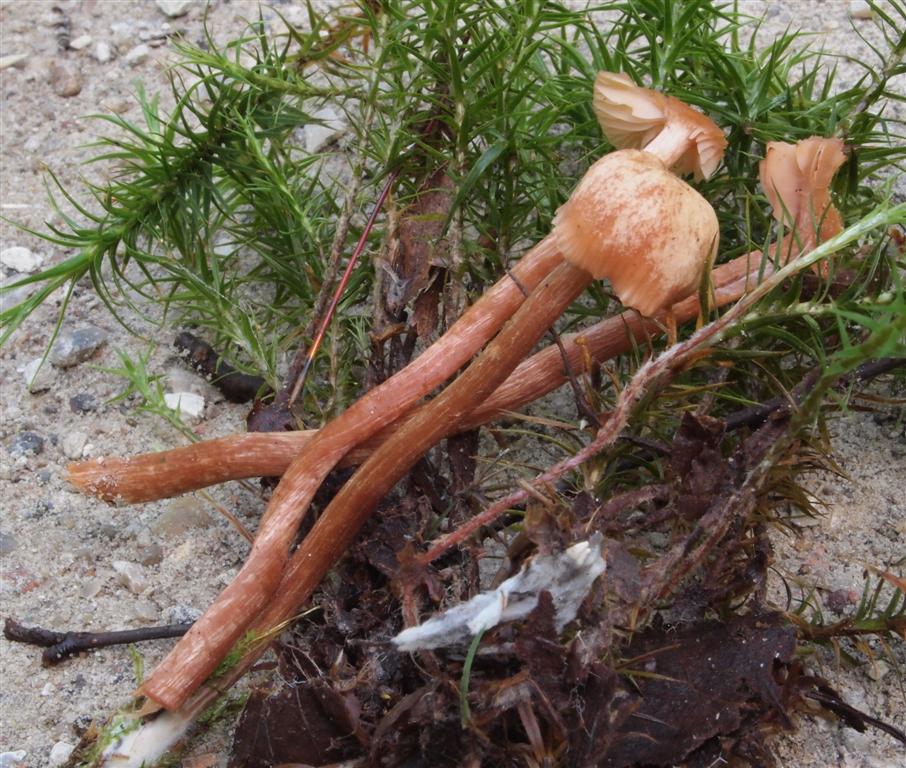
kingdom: Fungi
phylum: Basidiomycota
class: Agaricomycetes
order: Agaricales
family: Hydnangiaceae
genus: Laccaria
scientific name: Laccaria proxima
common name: stor ametysthat
